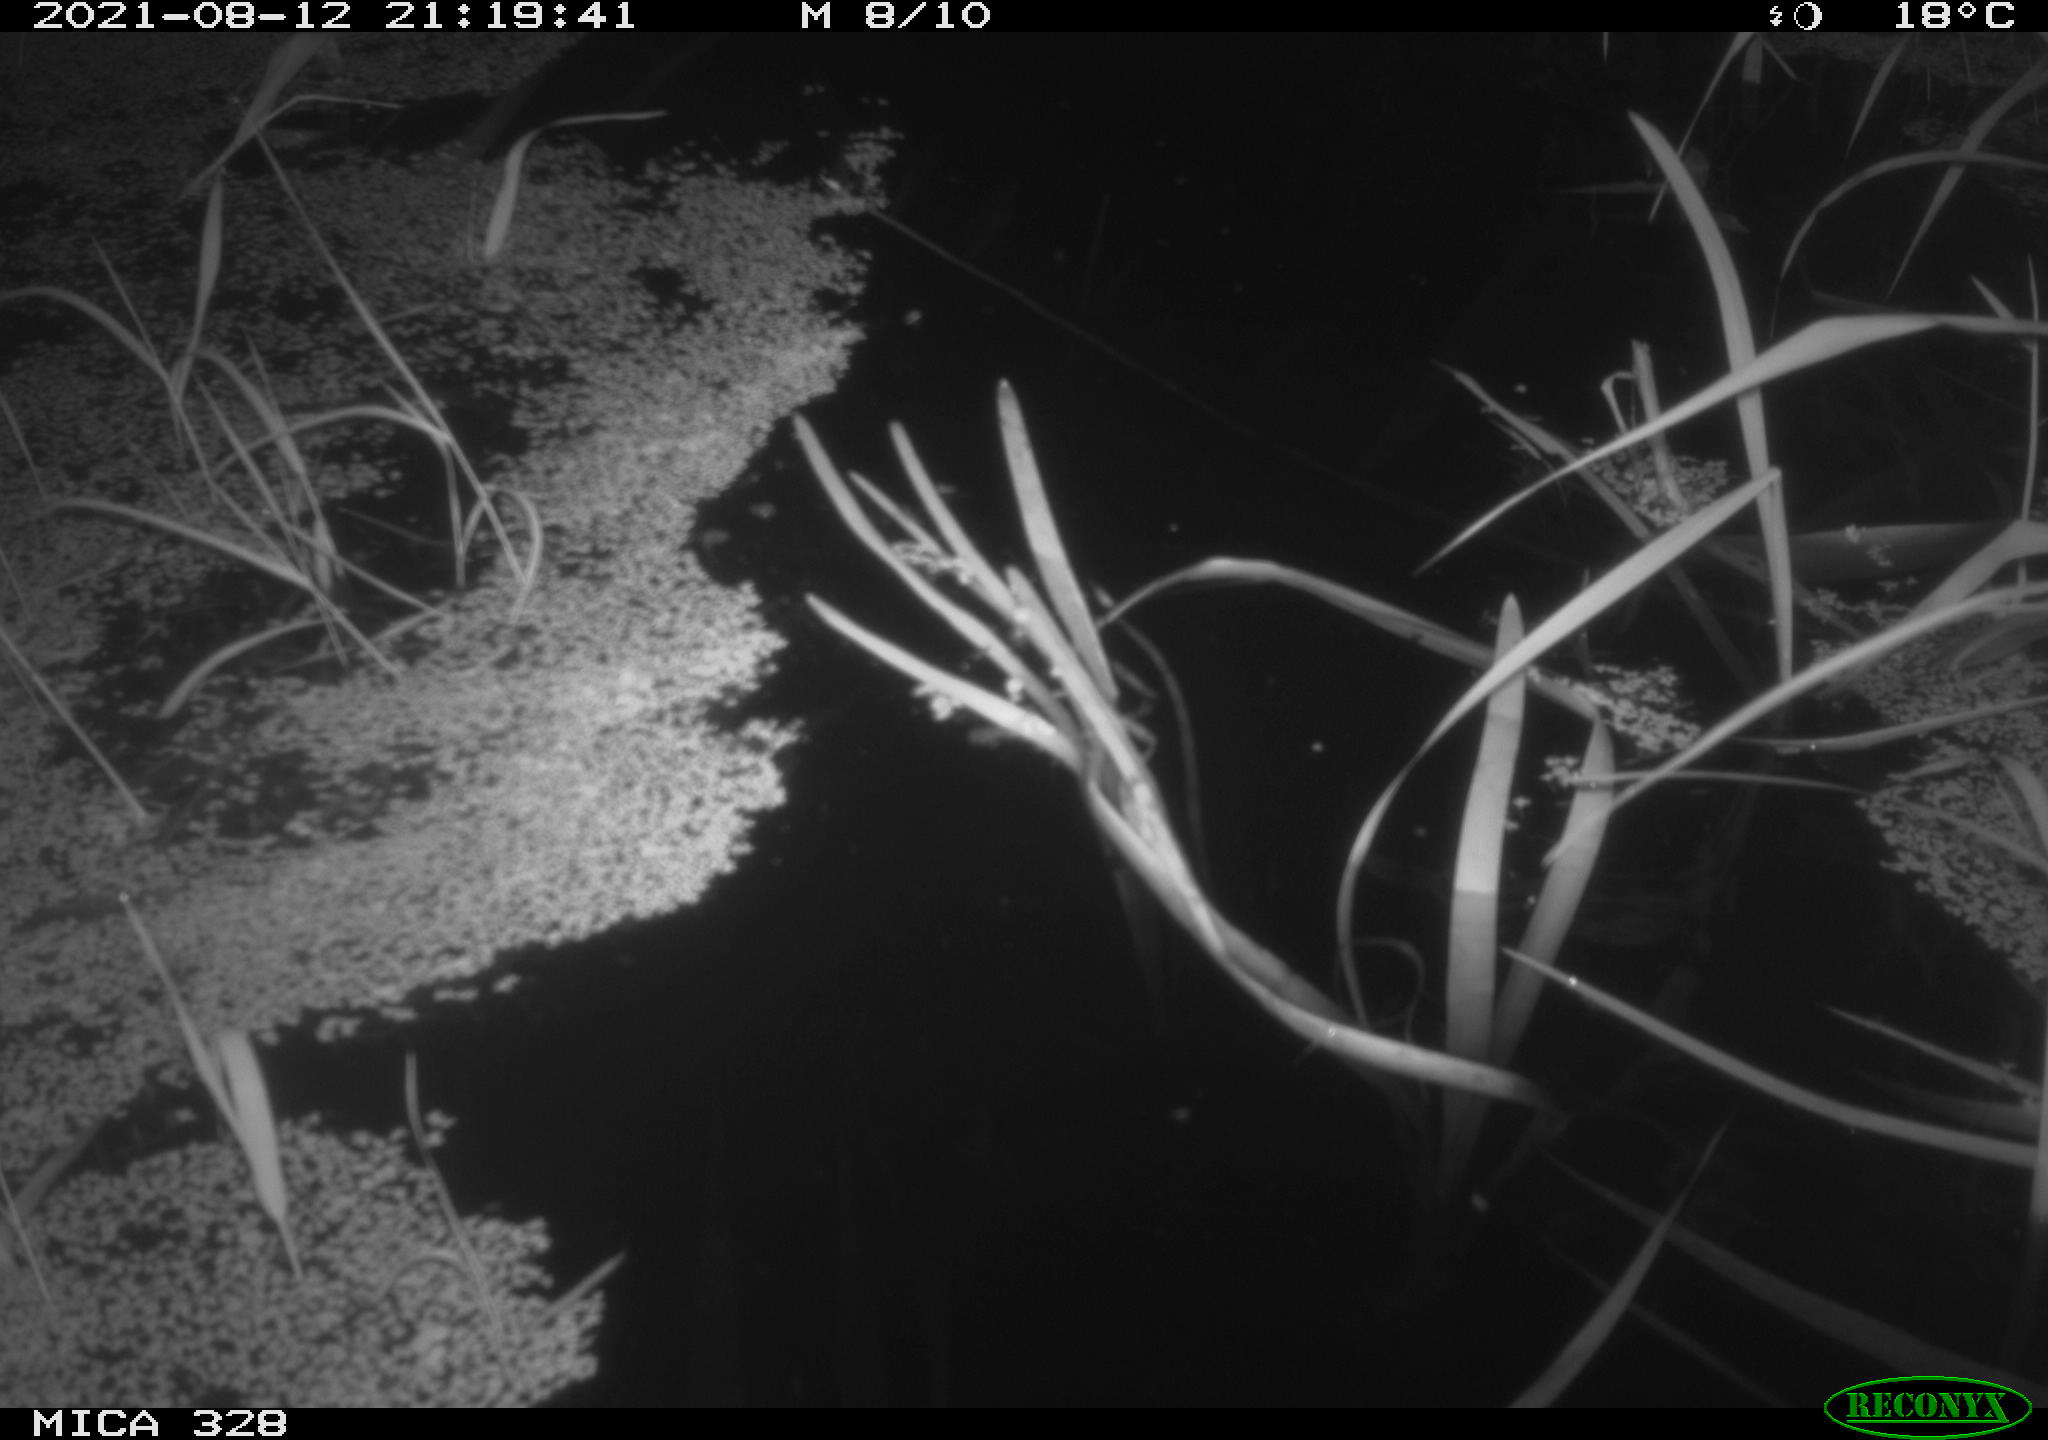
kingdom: Animalia
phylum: Chordata
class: Mammalia
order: Rodentia
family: Cricetidae
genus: Ondatra
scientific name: Ondatra zibethicus
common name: Muskrat
